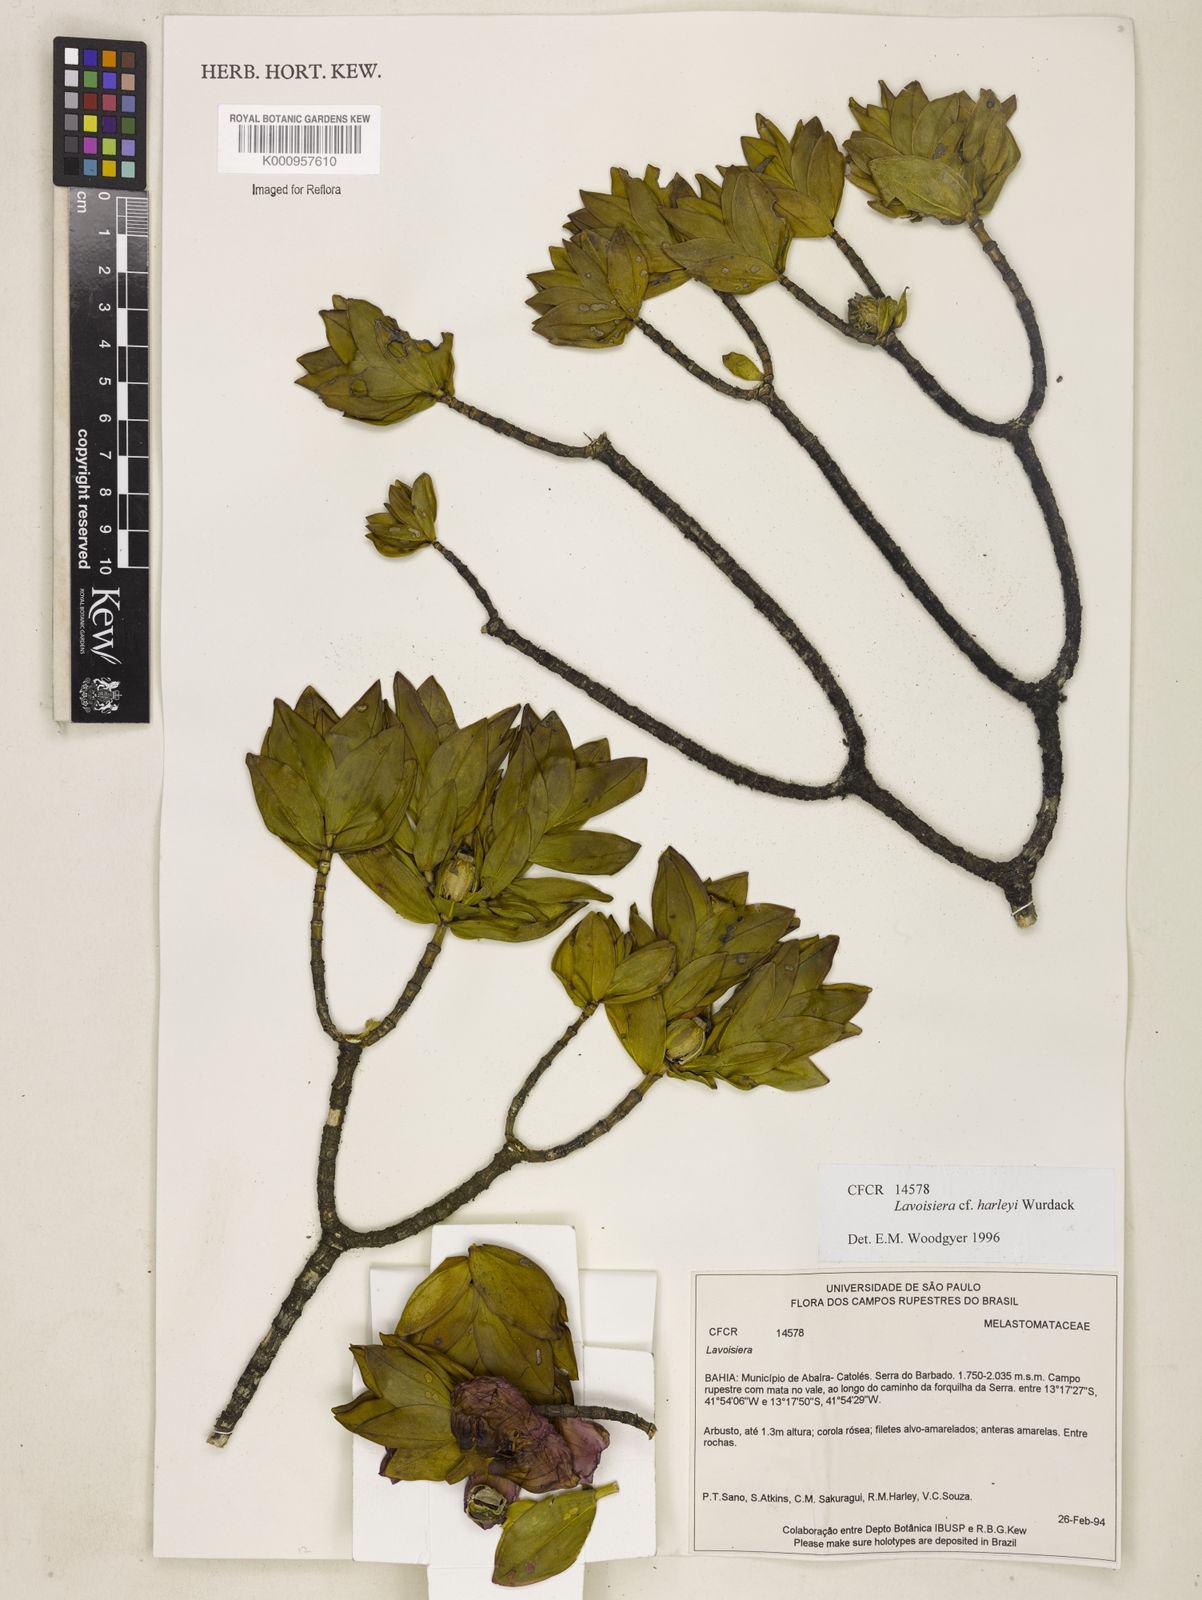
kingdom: Plantae
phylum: Tracheophyta
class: Magnoliopsida
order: Myrtales
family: Melastomataceae
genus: Microlicia
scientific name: Microlicia raymondii
